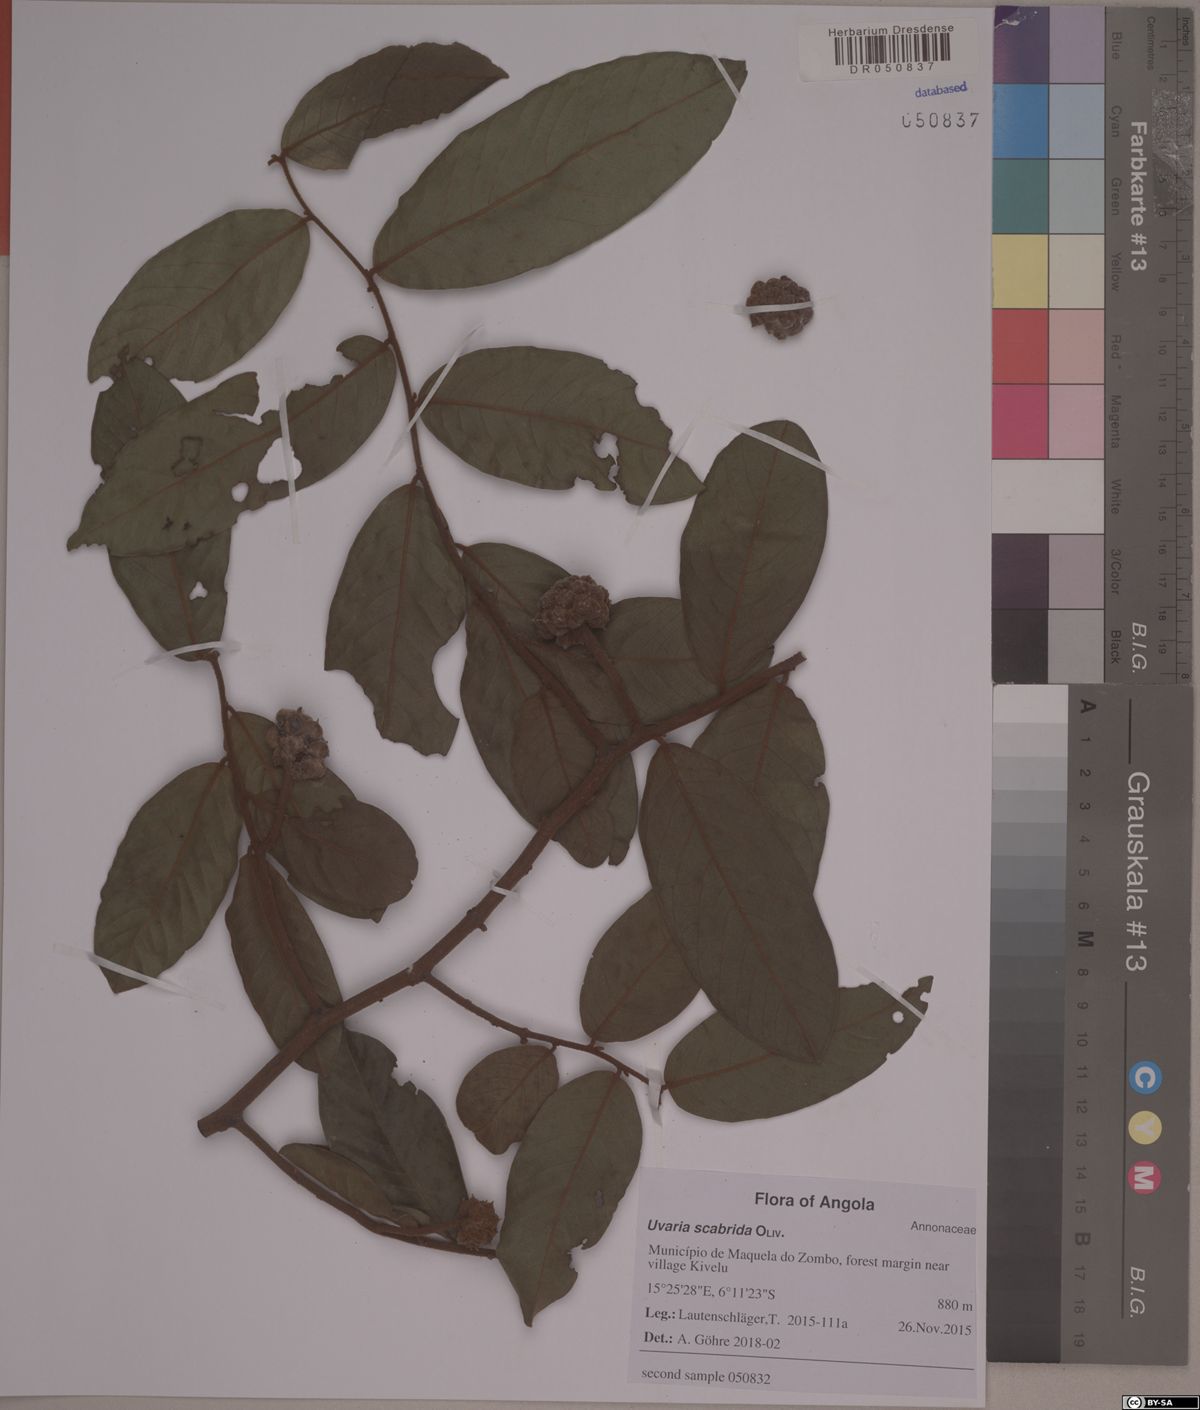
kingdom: Plantae
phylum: Tracheophyta
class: Magnoliopsida
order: Magnoliales
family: Annonaceae
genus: Uvaria
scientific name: Uvaria scabrida
